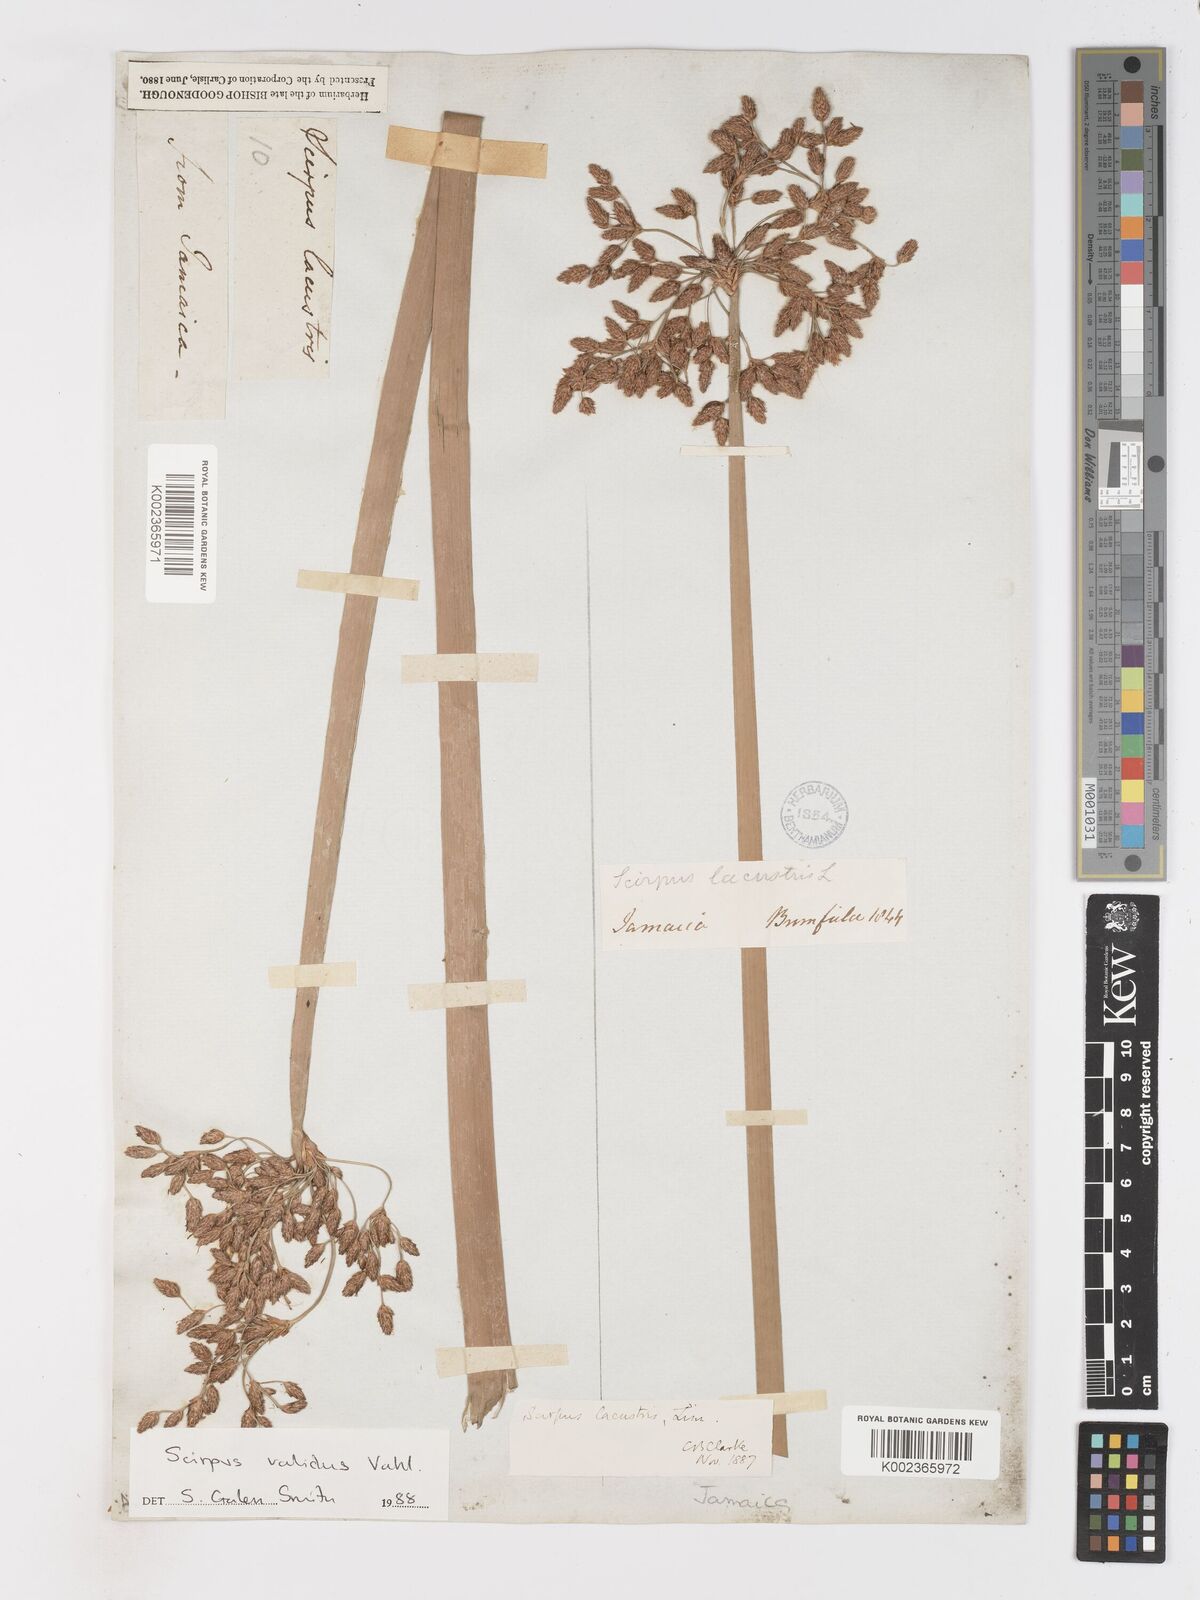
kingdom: Plantae
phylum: Tracheophyta
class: Liliopsida
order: Poales
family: Cyperaceae
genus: Schoenoplectus
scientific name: Schoenoplectus lacustris
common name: Common club-rush
